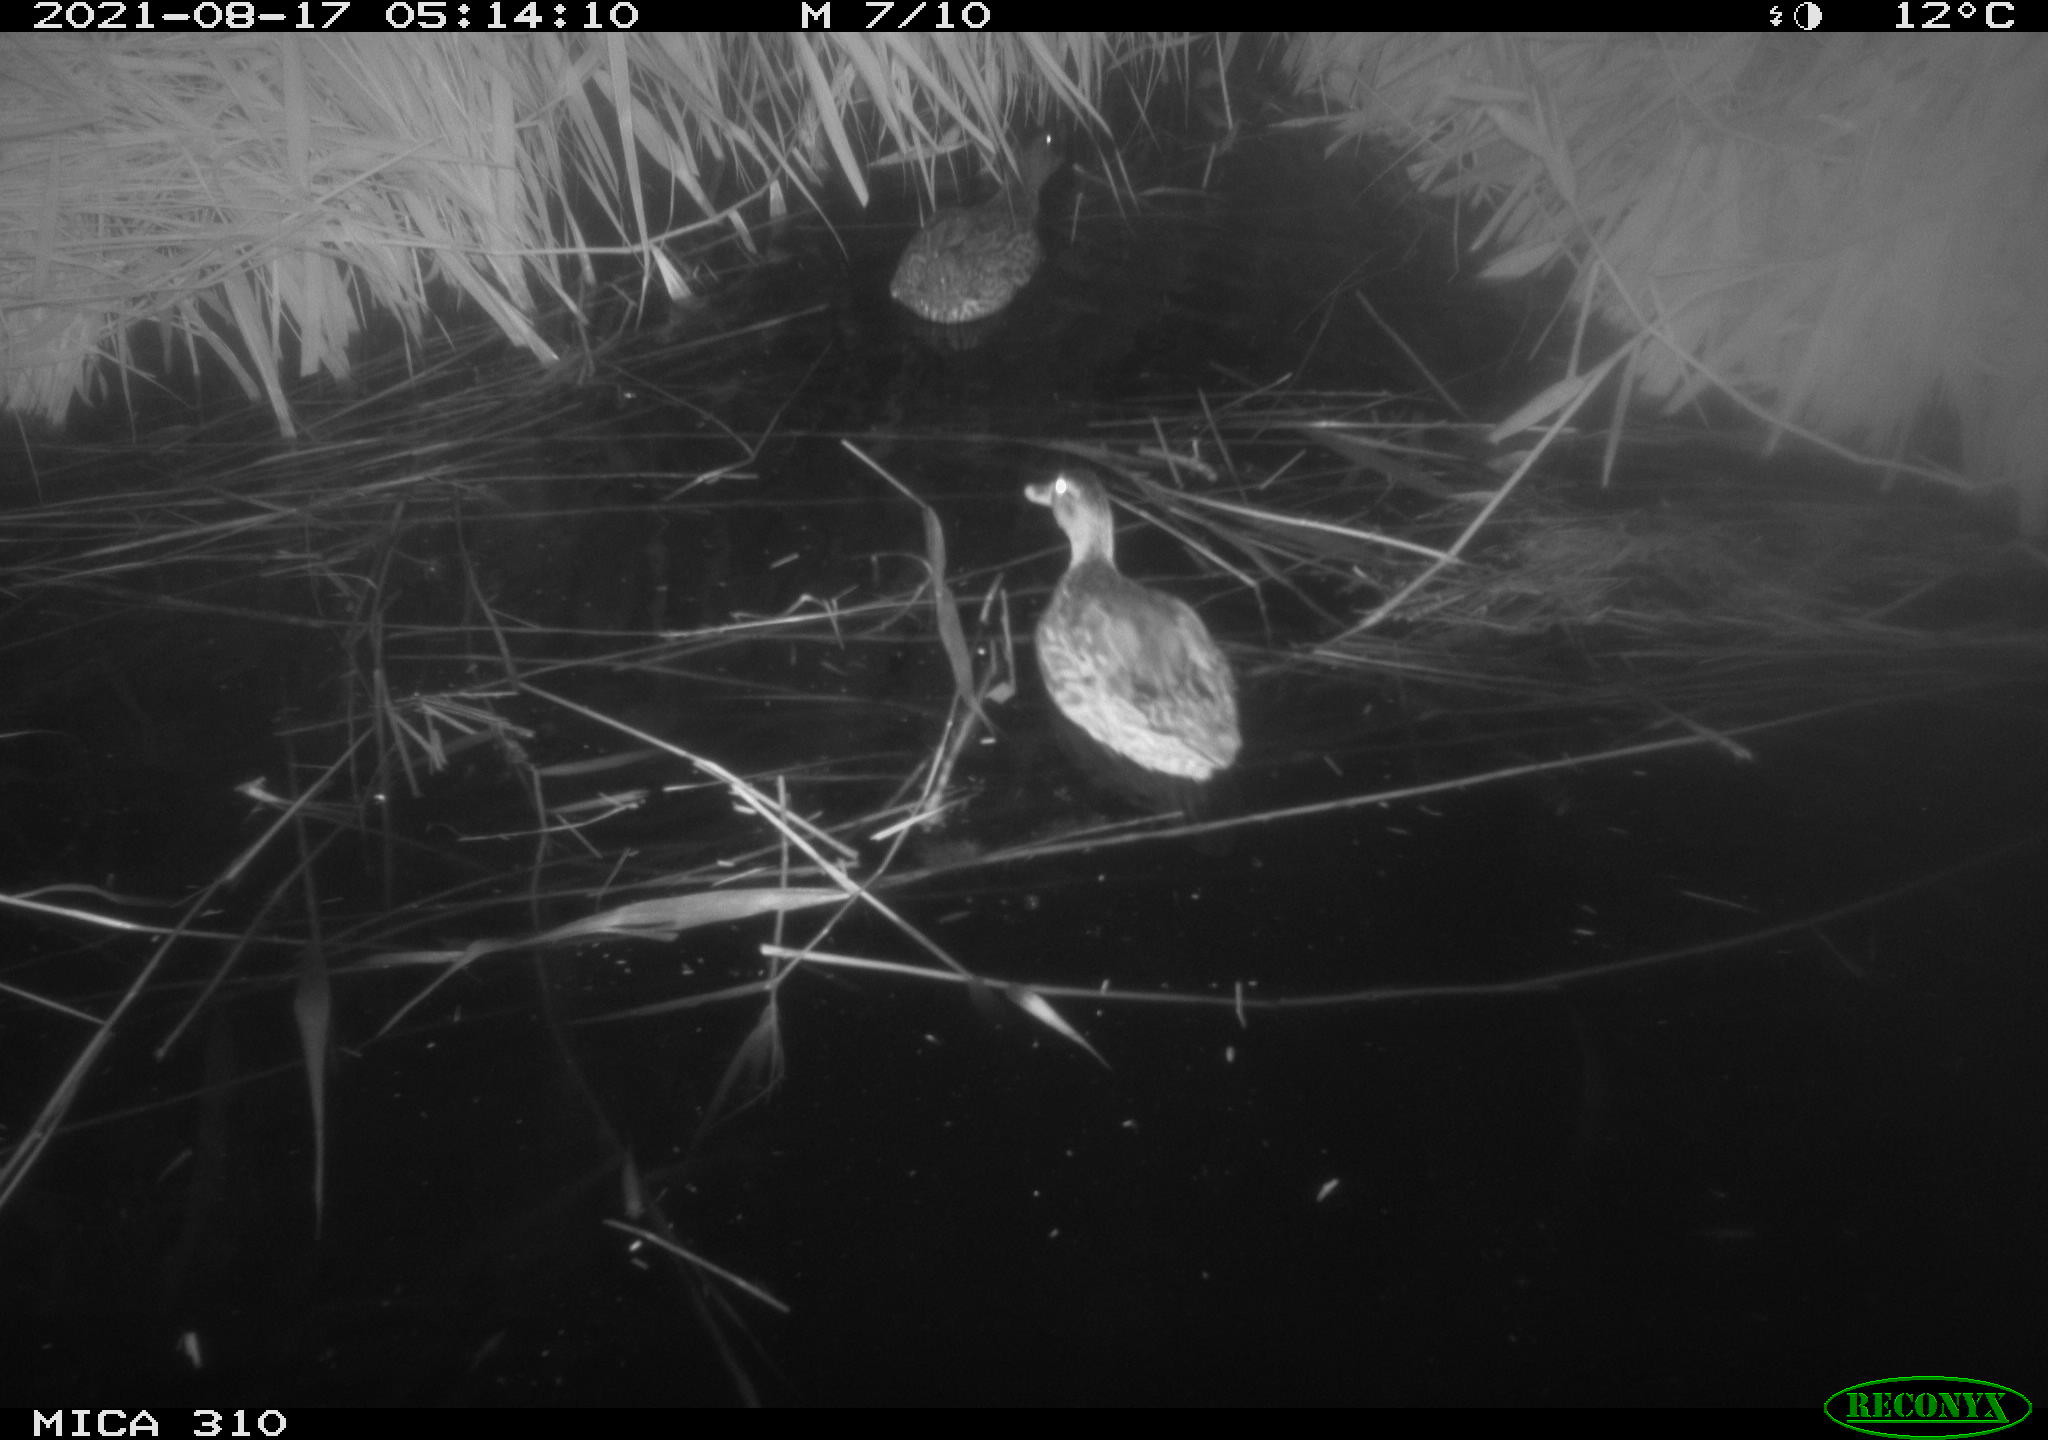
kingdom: Animalia
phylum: Chordata
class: Aves
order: Anseriformes
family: Anatidae
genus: Anas
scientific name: Anas platyrhynchos
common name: Mallard
